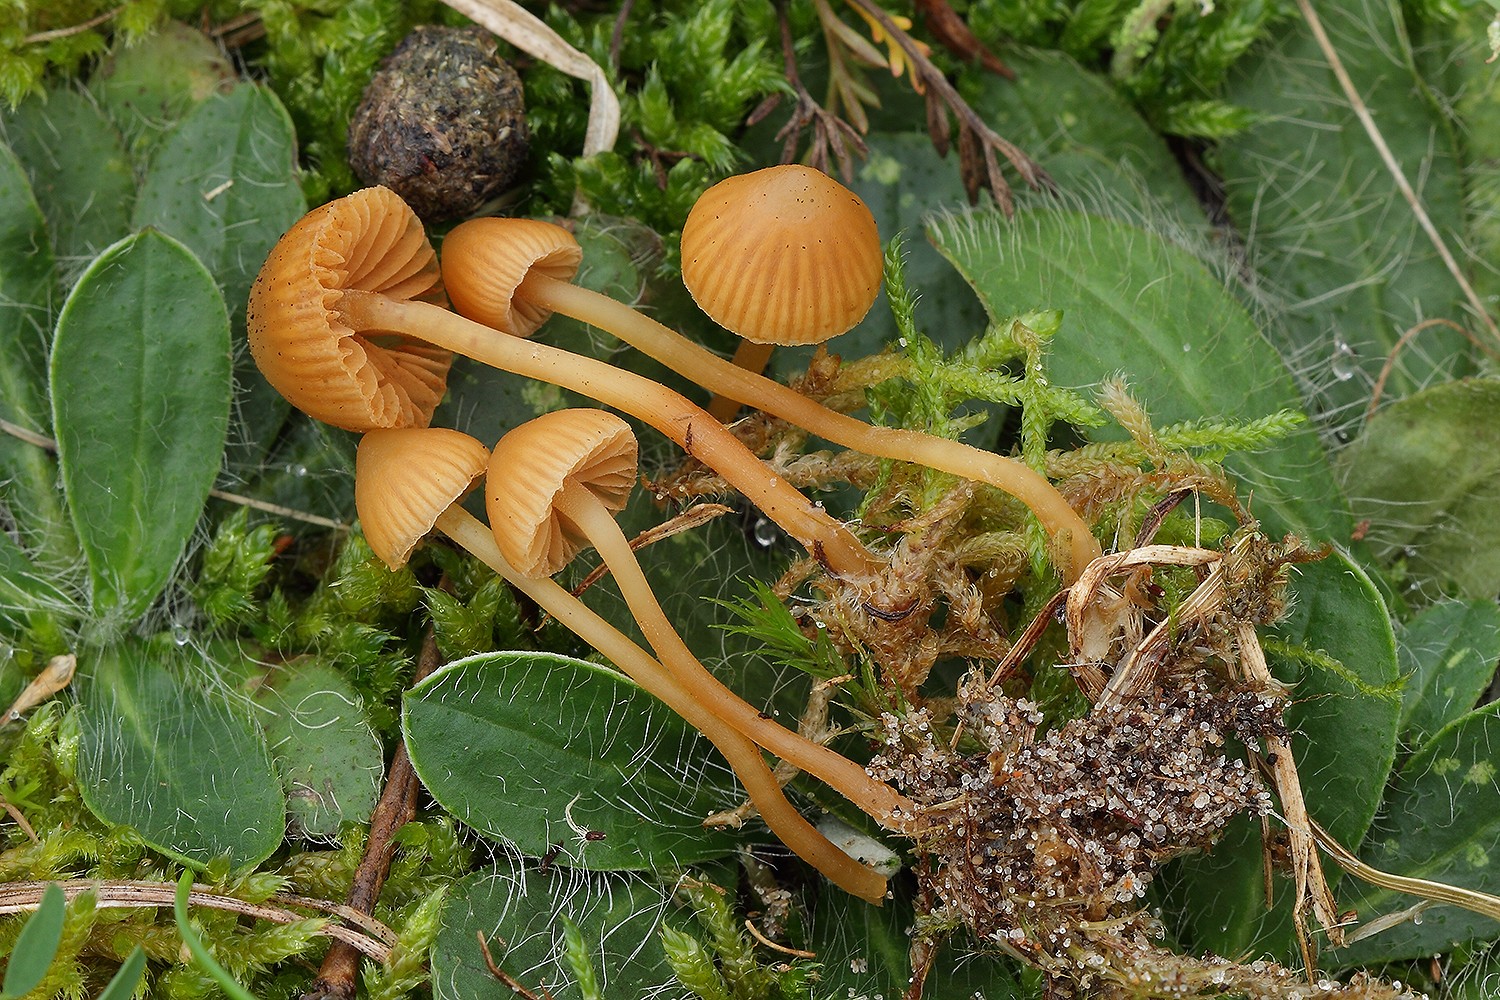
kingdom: Fungi
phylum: Basidiomycota
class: Agaricomycetes
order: Agaricales
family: Hymenogastraceae
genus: Galerina
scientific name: Galerina vittiformis
